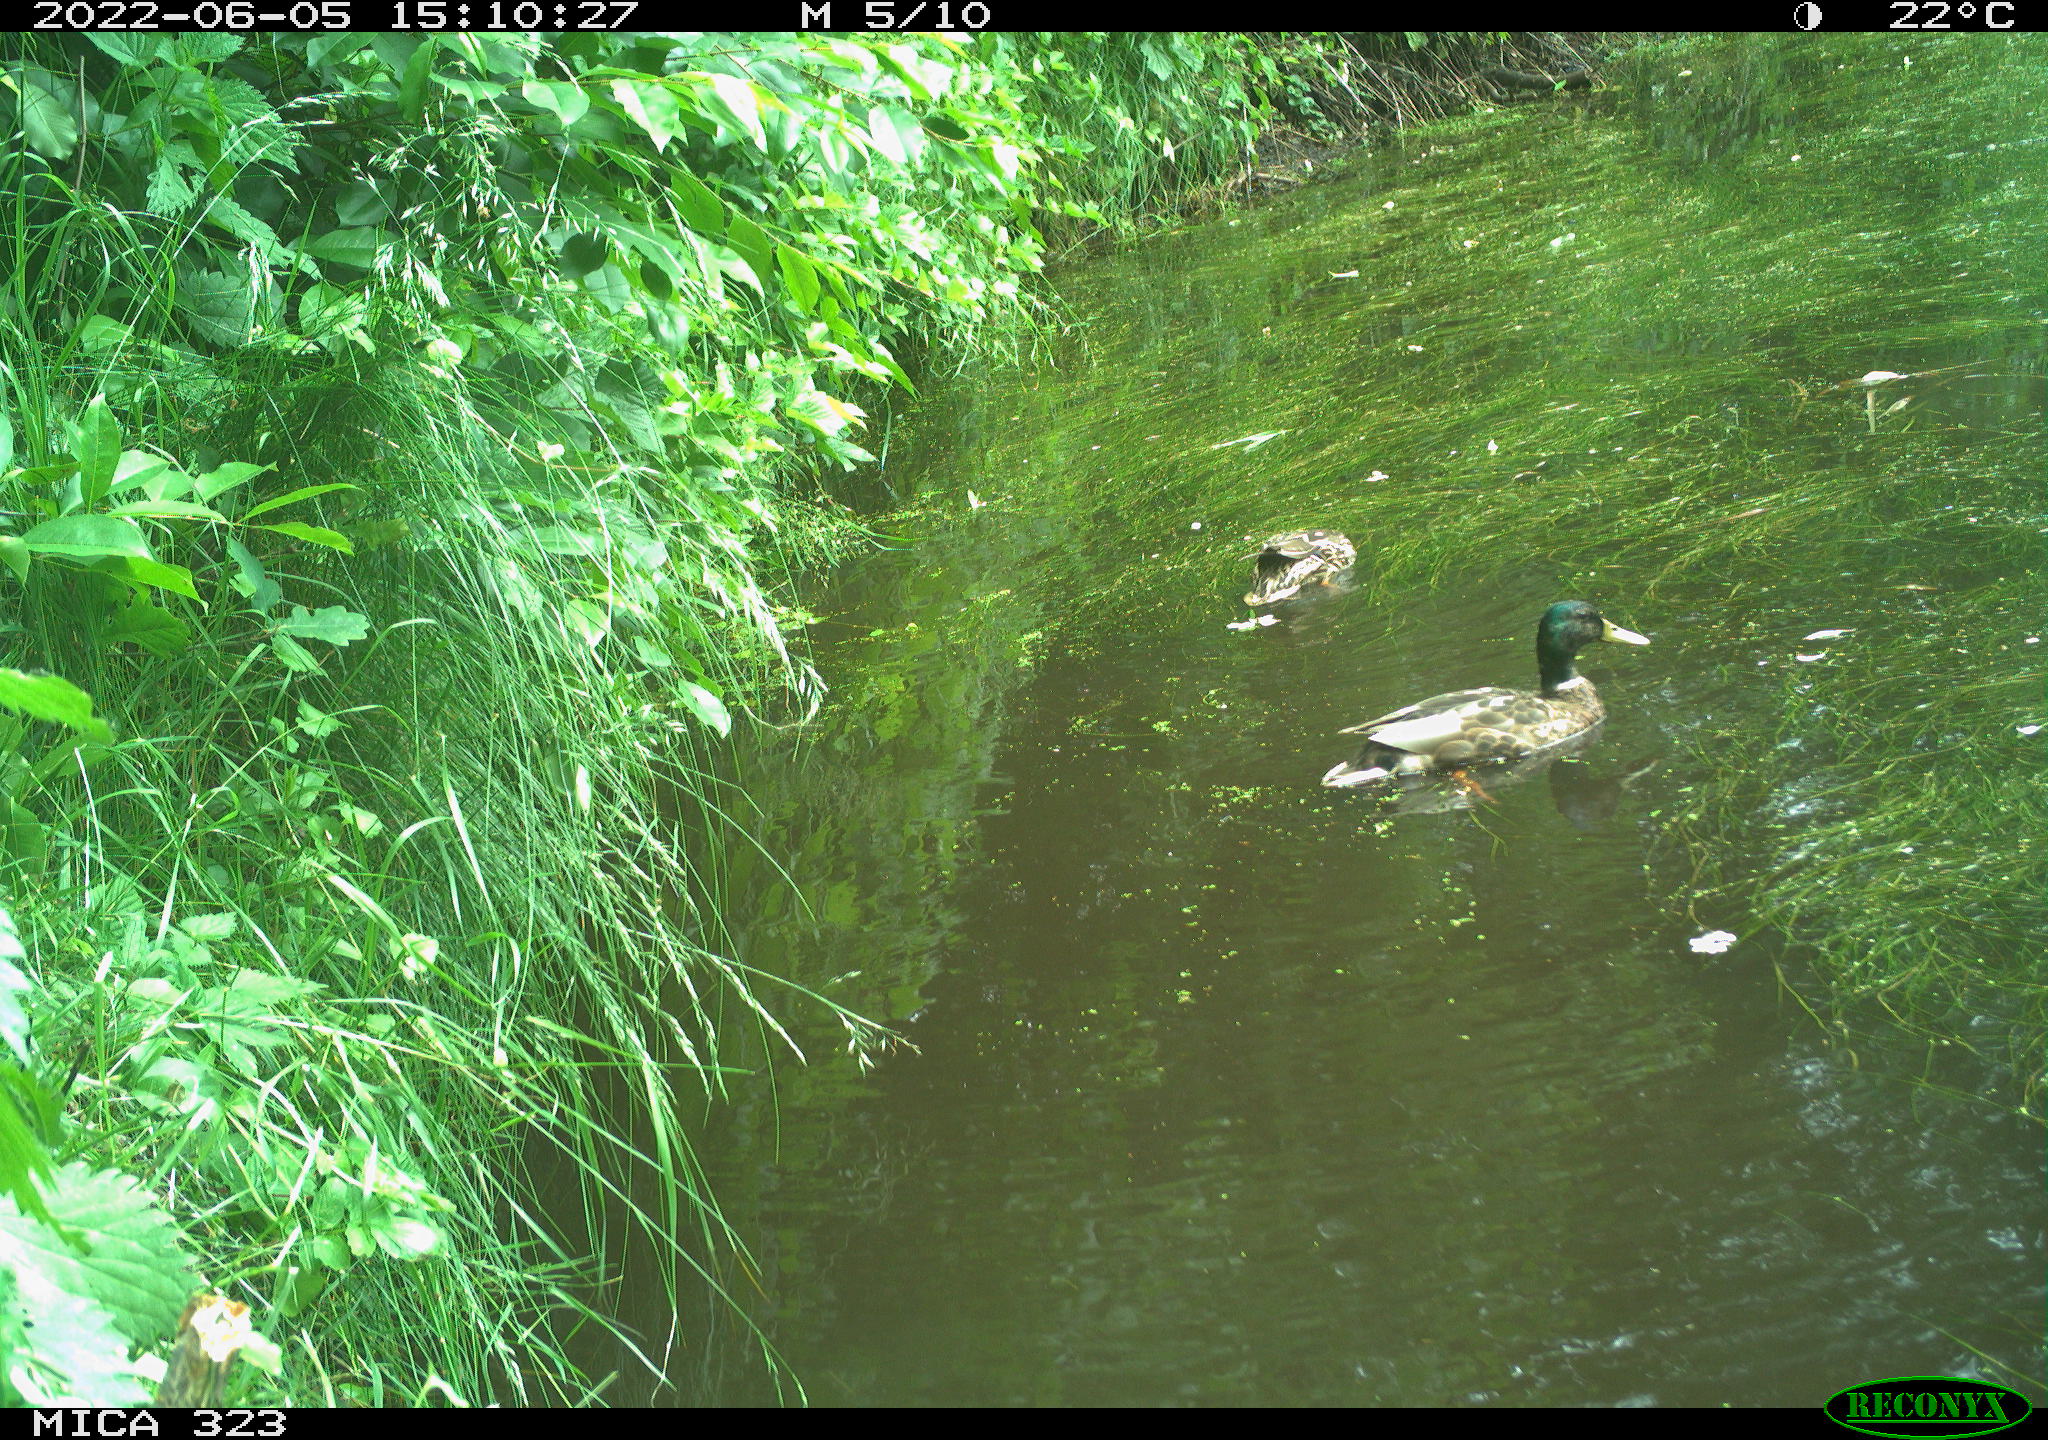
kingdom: Animalia
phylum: Chordata
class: Aves
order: Anseriformes
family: Anatidae
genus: Anas
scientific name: Anas platyrhynchos
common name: Mallard
